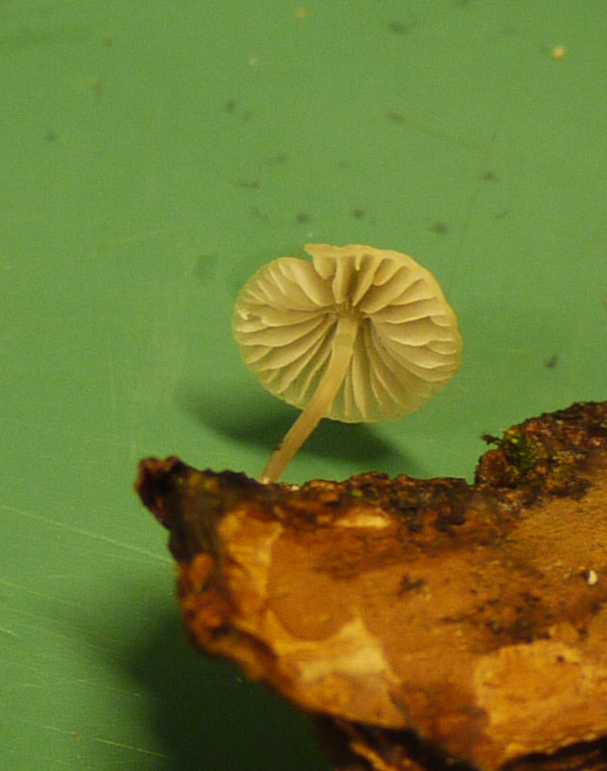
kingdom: Fungi
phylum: Basidiomycota
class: Agaricomycetes
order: Agaricales
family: Mycenaceae
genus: Hemimycena
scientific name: Hemimycena
